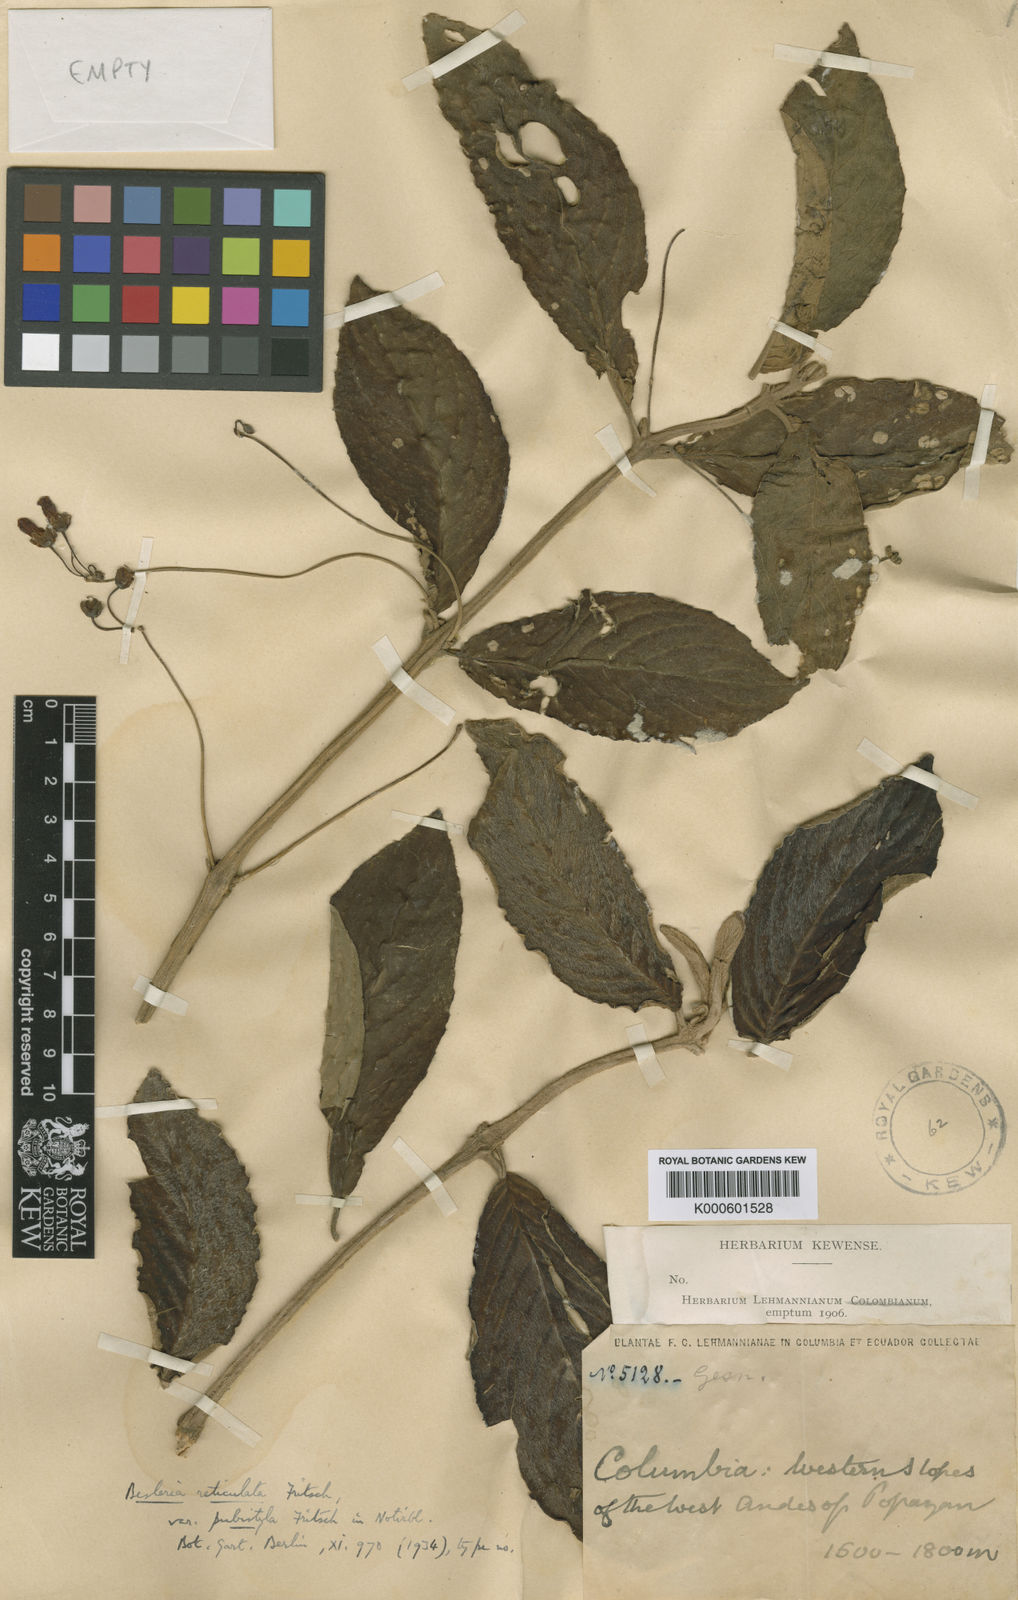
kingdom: Plantae
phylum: Tracheophyta
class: Magnoliopsida
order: Lamiales
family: Gesneriaceae
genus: Besleria
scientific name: Besleria reticulata
